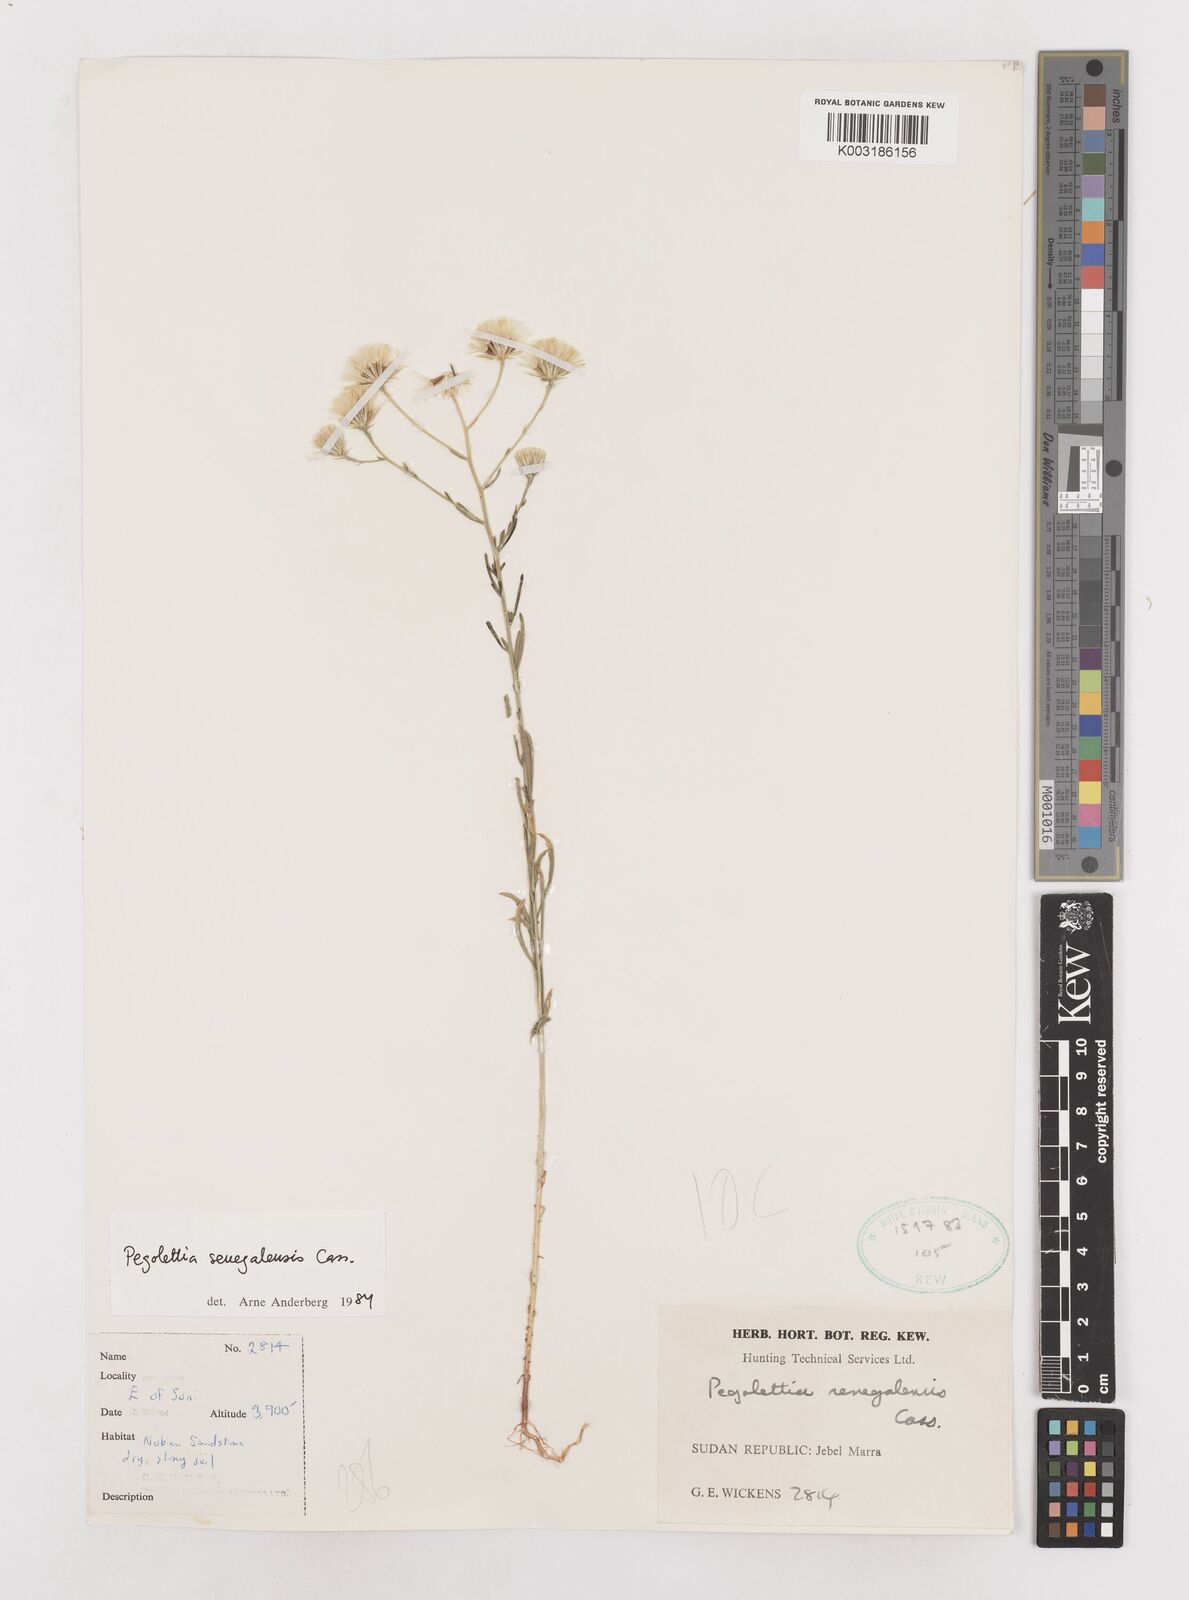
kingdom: Plantae
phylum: Tracheophyta
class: Magnoliopsida
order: Asterales
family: Asteraceae
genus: Pegolettia
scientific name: Pegolettia senegalensis
